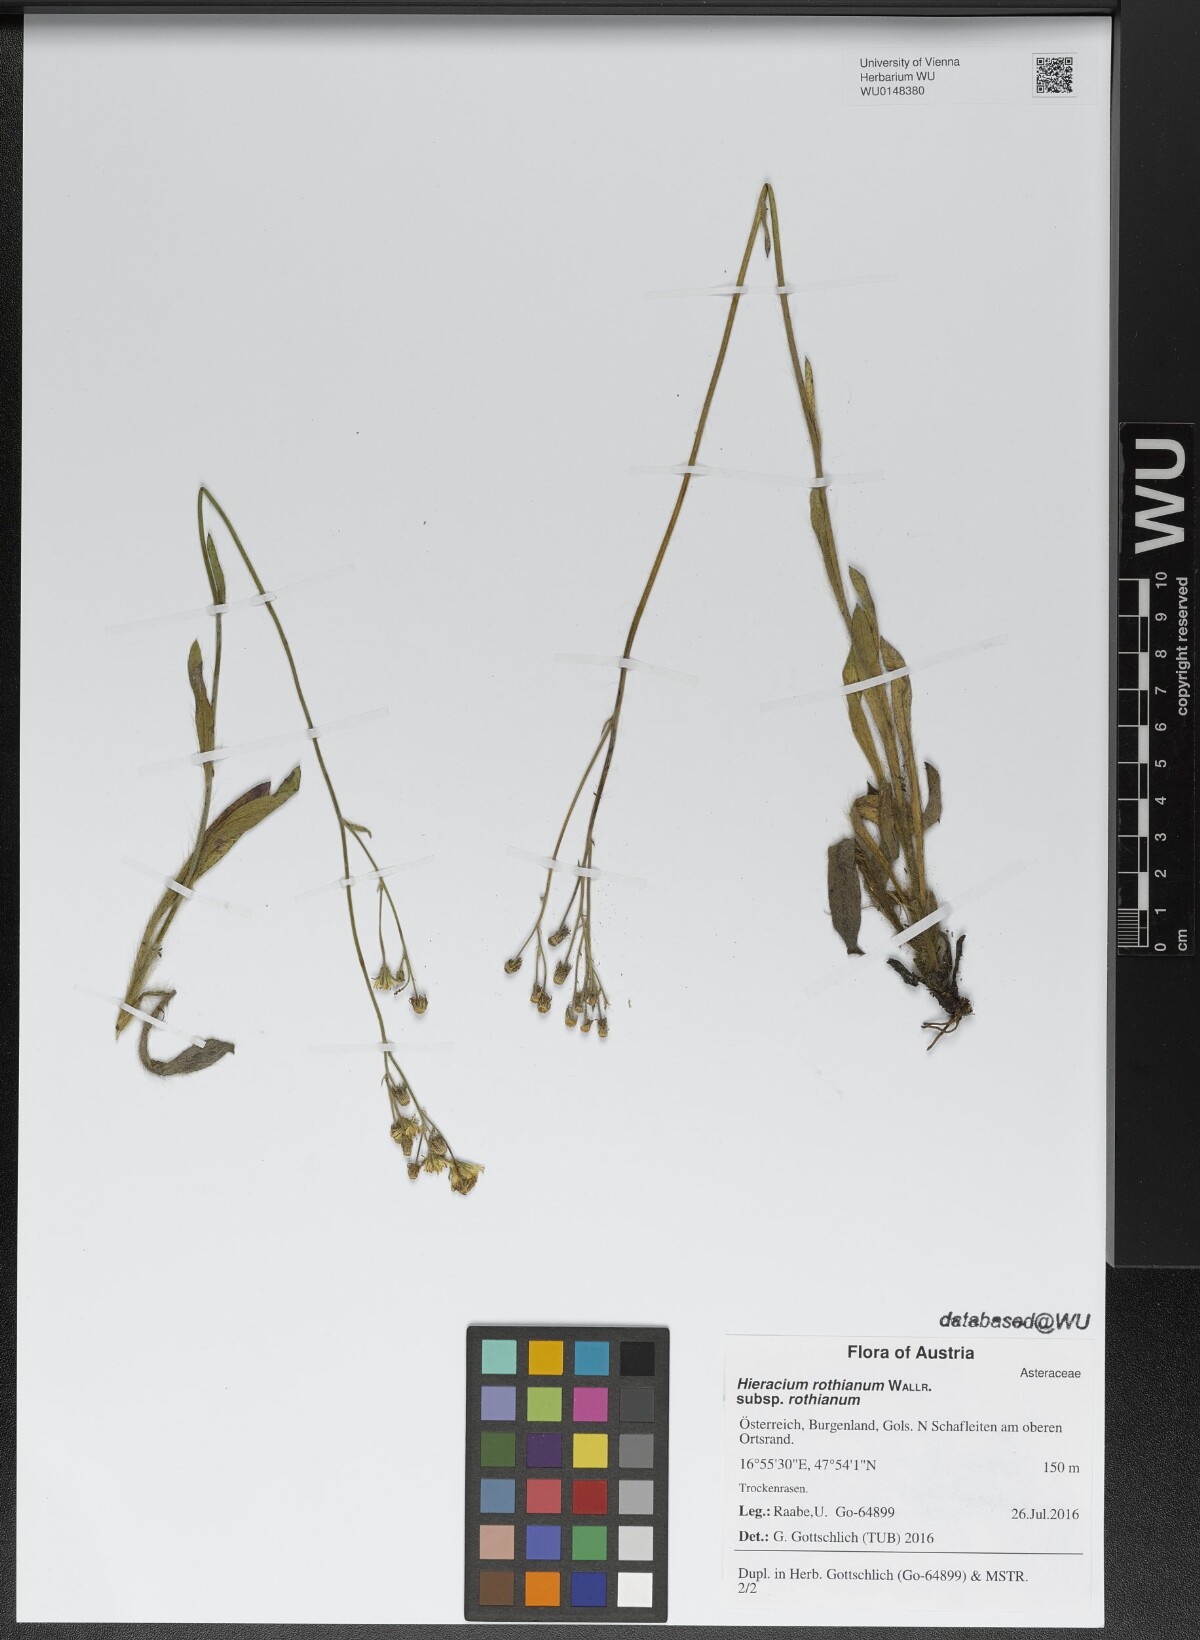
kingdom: Plantae
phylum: Tracheophyta
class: Magnoliopsida
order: Asterales
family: Asteraceae
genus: Pilosella
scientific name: Pilosella rothiana
